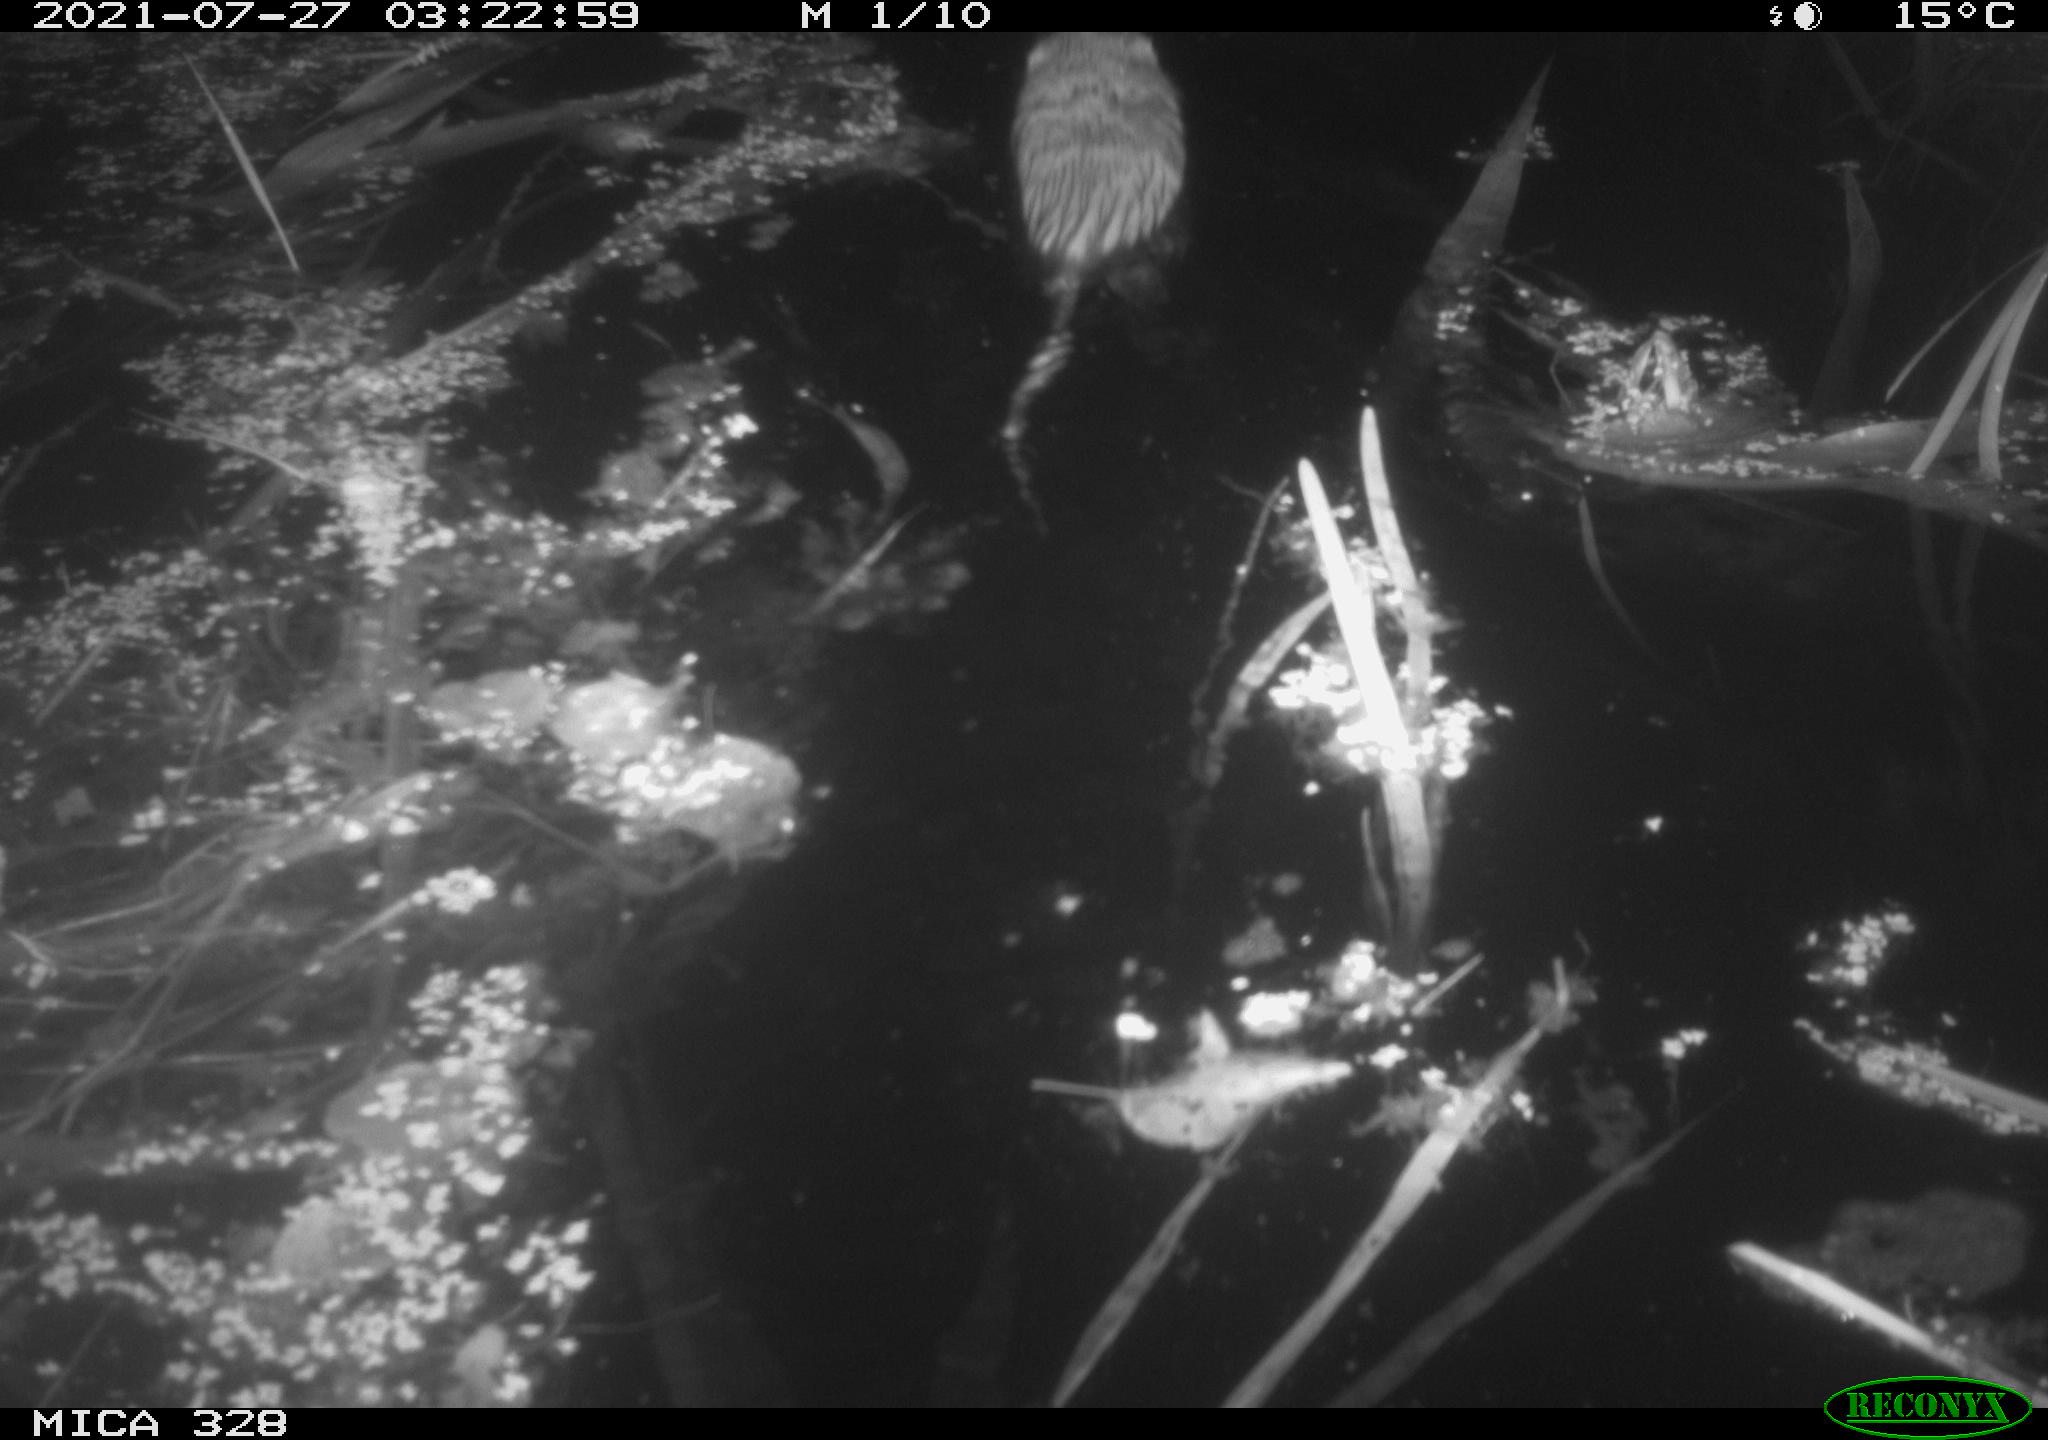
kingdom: Animalia
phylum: Chordata
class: Mammalia
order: Rodentia
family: Cricetidae
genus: Ondatra
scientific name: Ondatra zibethicus
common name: Muskrat
